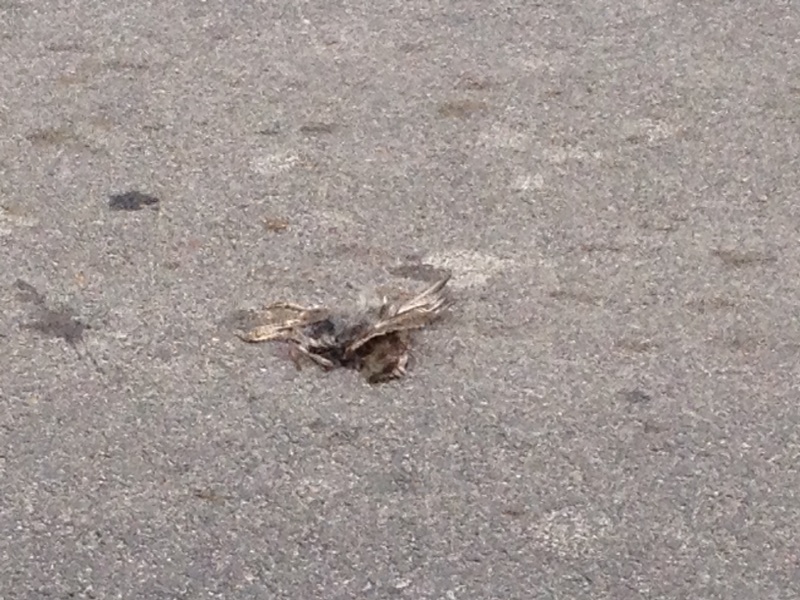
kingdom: Animalia
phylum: Chordata
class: Aves
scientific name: Aves
